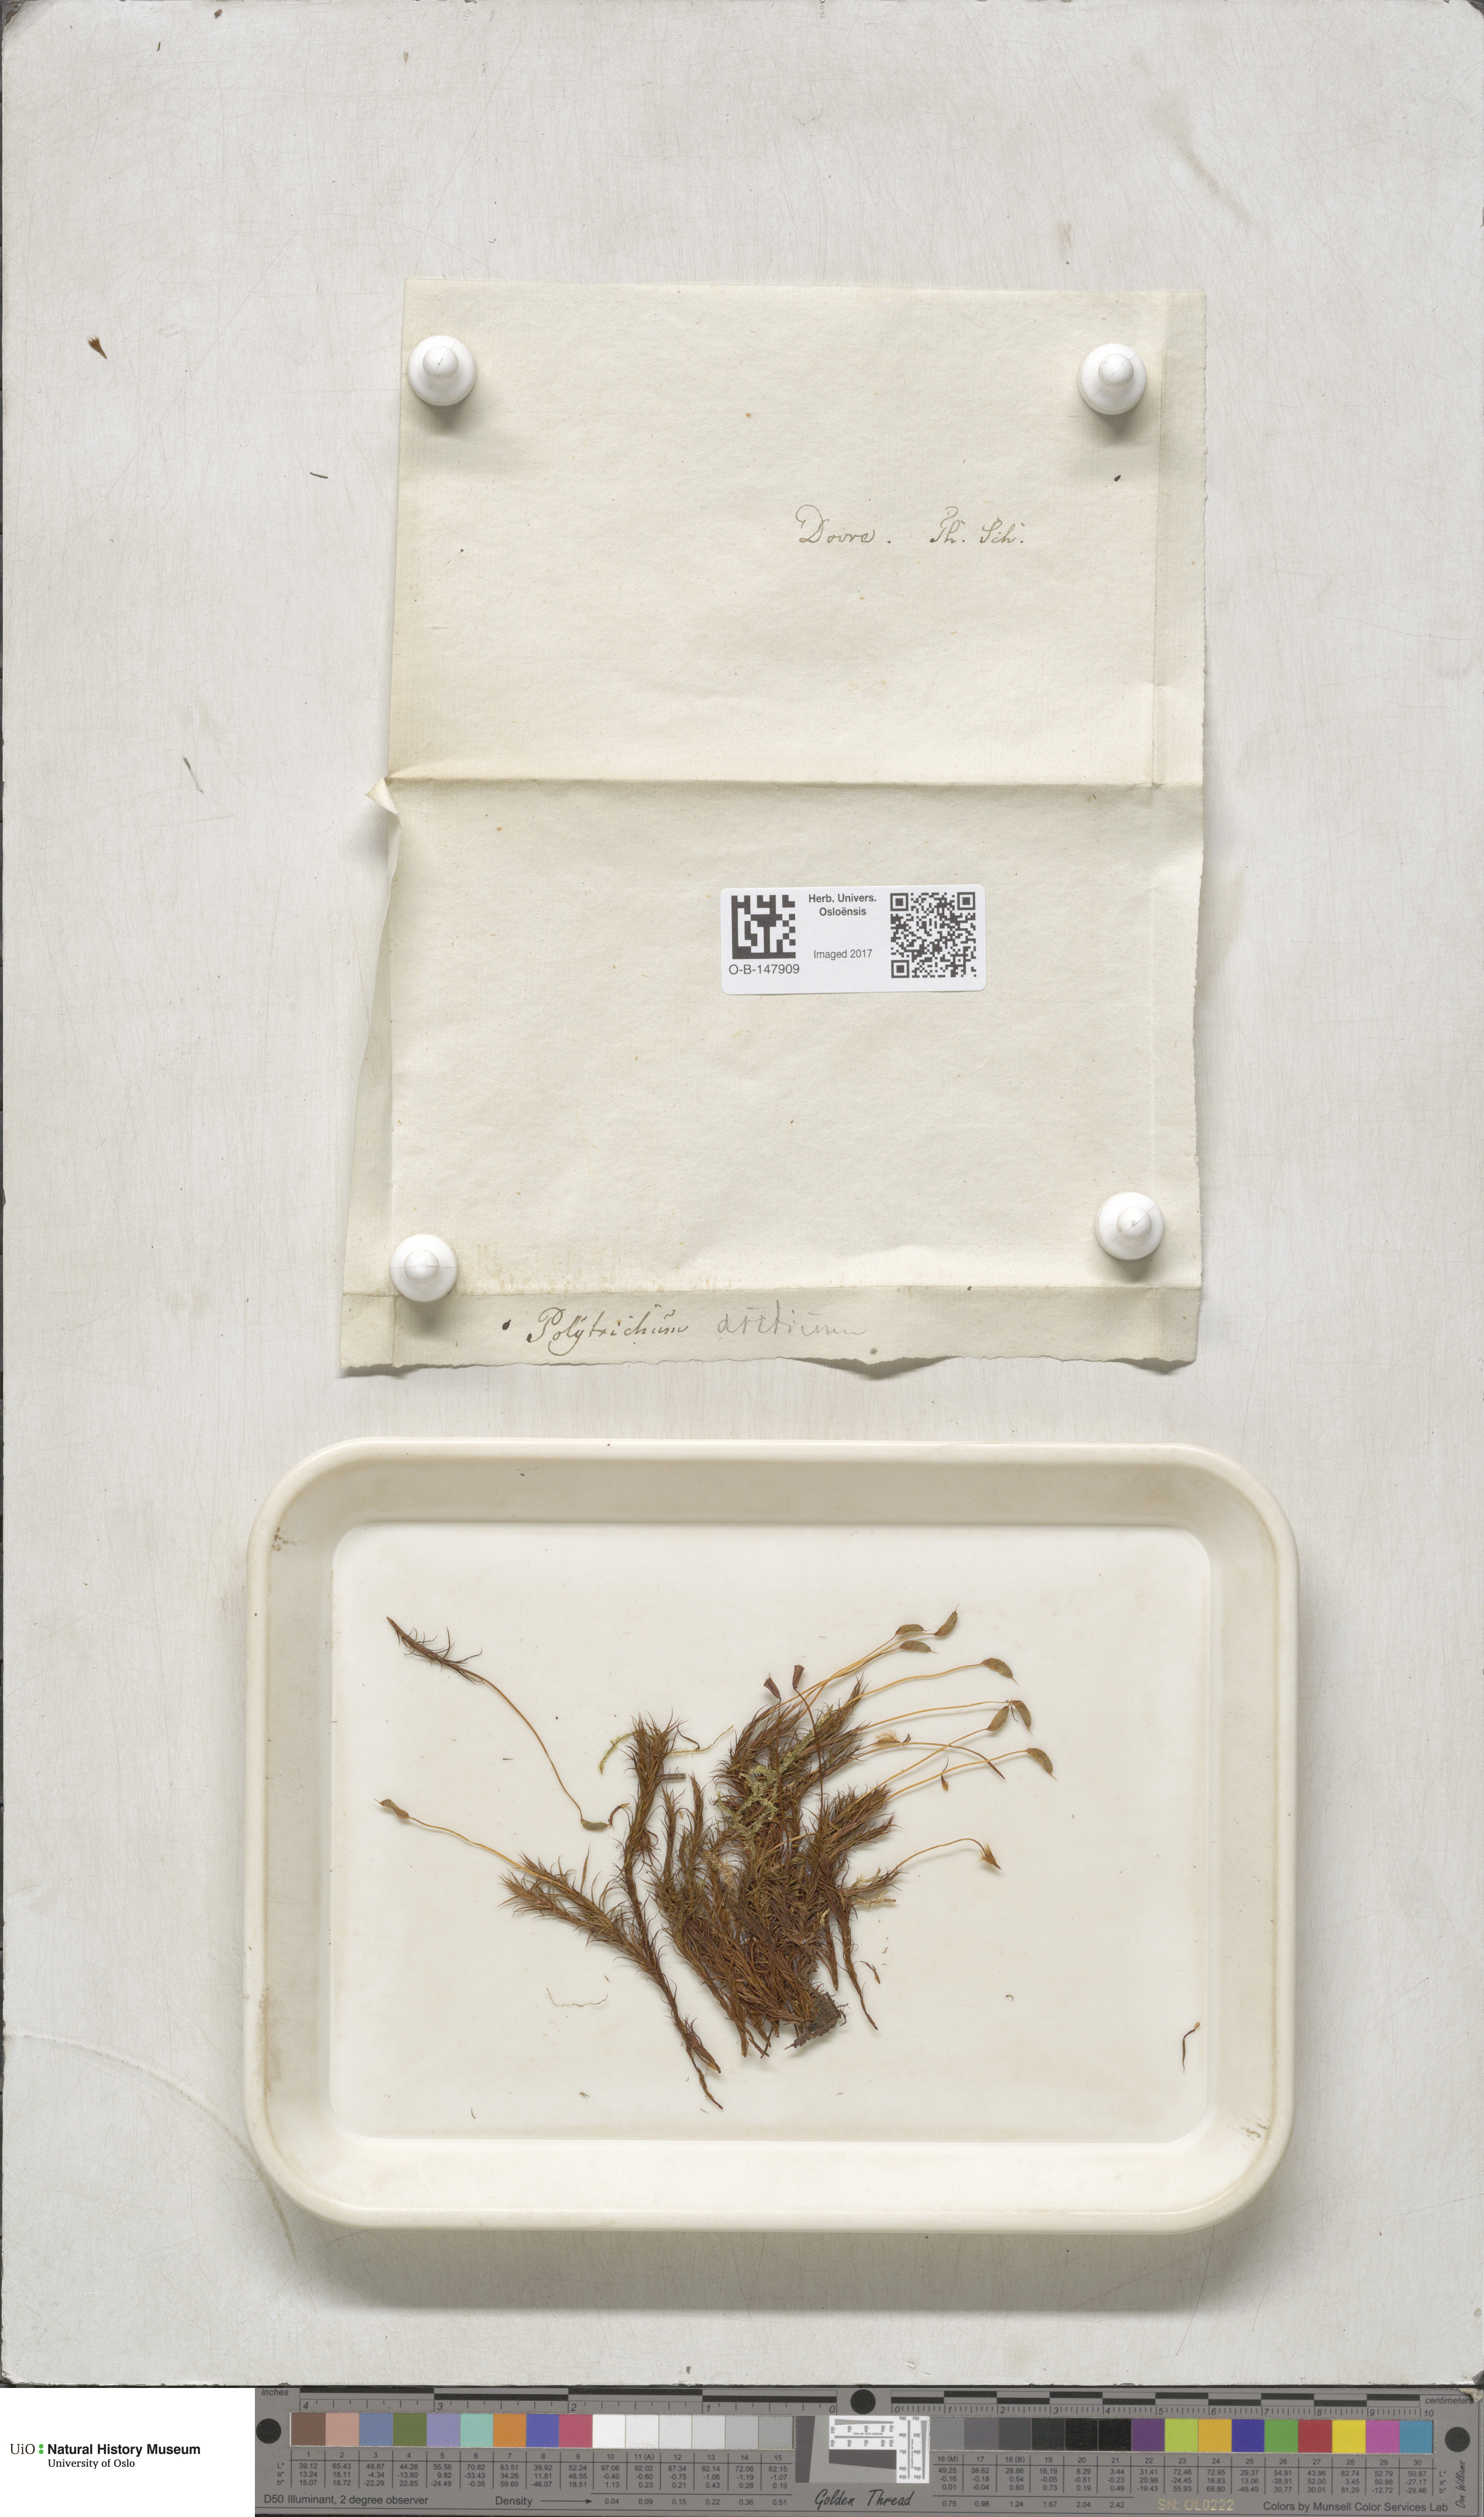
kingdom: Plantae
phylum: Bryophyta
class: Polytrichopsida
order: Polytrichales
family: Polytrichaceae
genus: Polytrichastrum
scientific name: Polytrichastrum alpinum
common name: Alpine haircap
